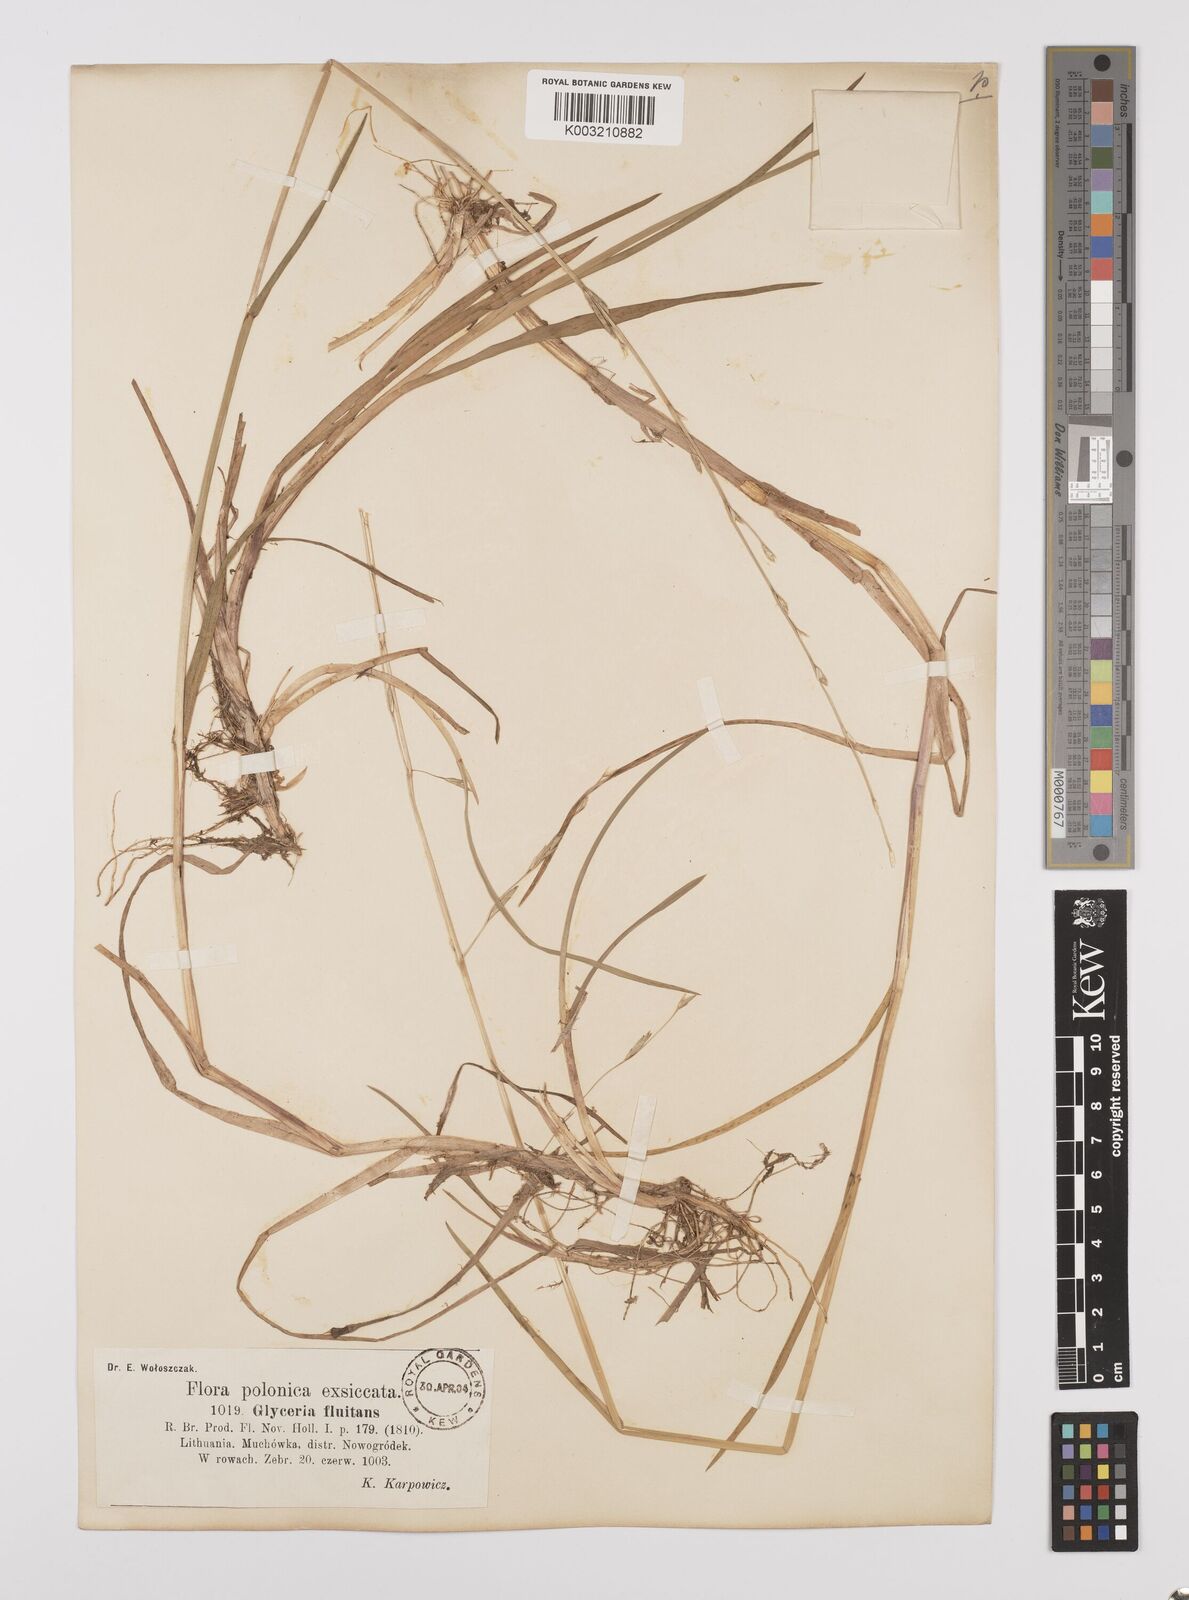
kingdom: Plantae
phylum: Tracheophyta
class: Liliopsida
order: Poales
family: Poaceae
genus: Glyceria
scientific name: Glyceria fluitans
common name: Floating sweet-grass
